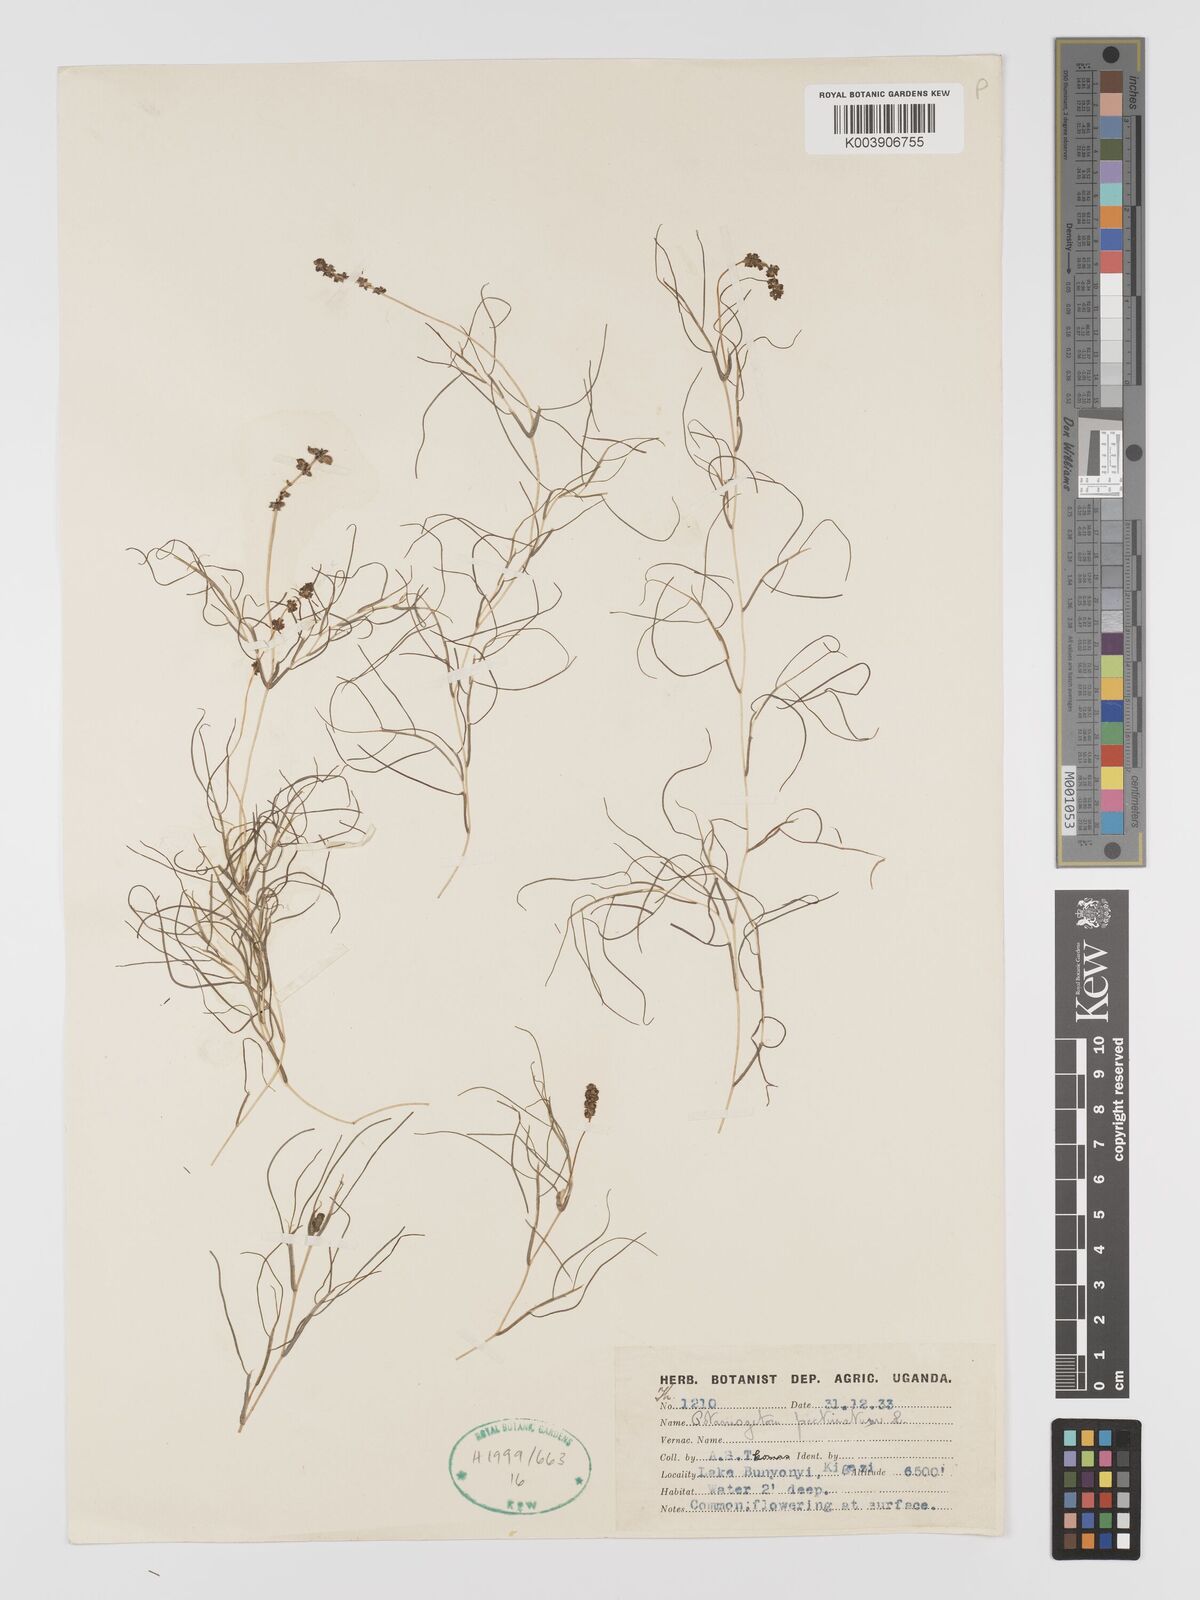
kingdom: Plantae
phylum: Tracheophyta
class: Liliopsida
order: Alismatales
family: Potamogetonaceae
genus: Stuckenia
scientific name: Stuckenia pectinata
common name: Sago pondweed
